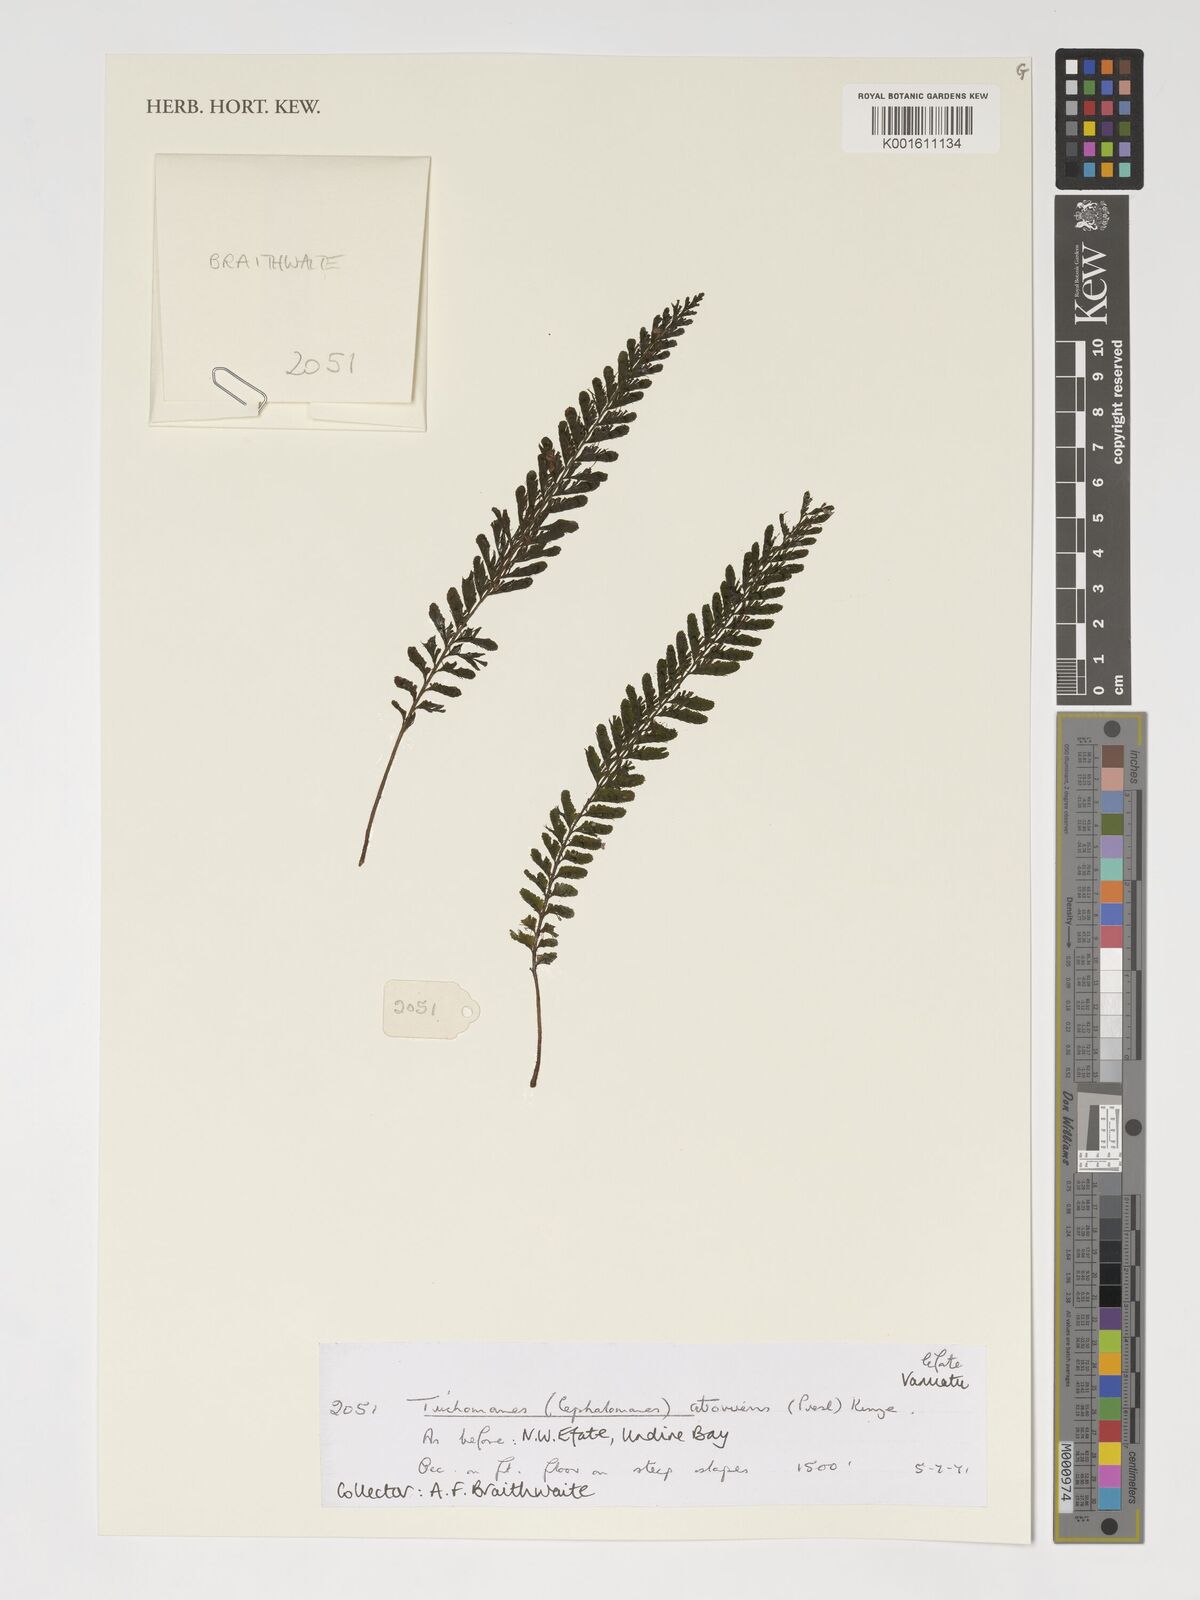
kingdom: Plantae
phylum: Tracheophyta
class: Polypodiopsida
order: Hymenophyllales
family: Hymenophyllaceae
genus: Cephalomanes
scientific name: Cephalomanes atrovirens
